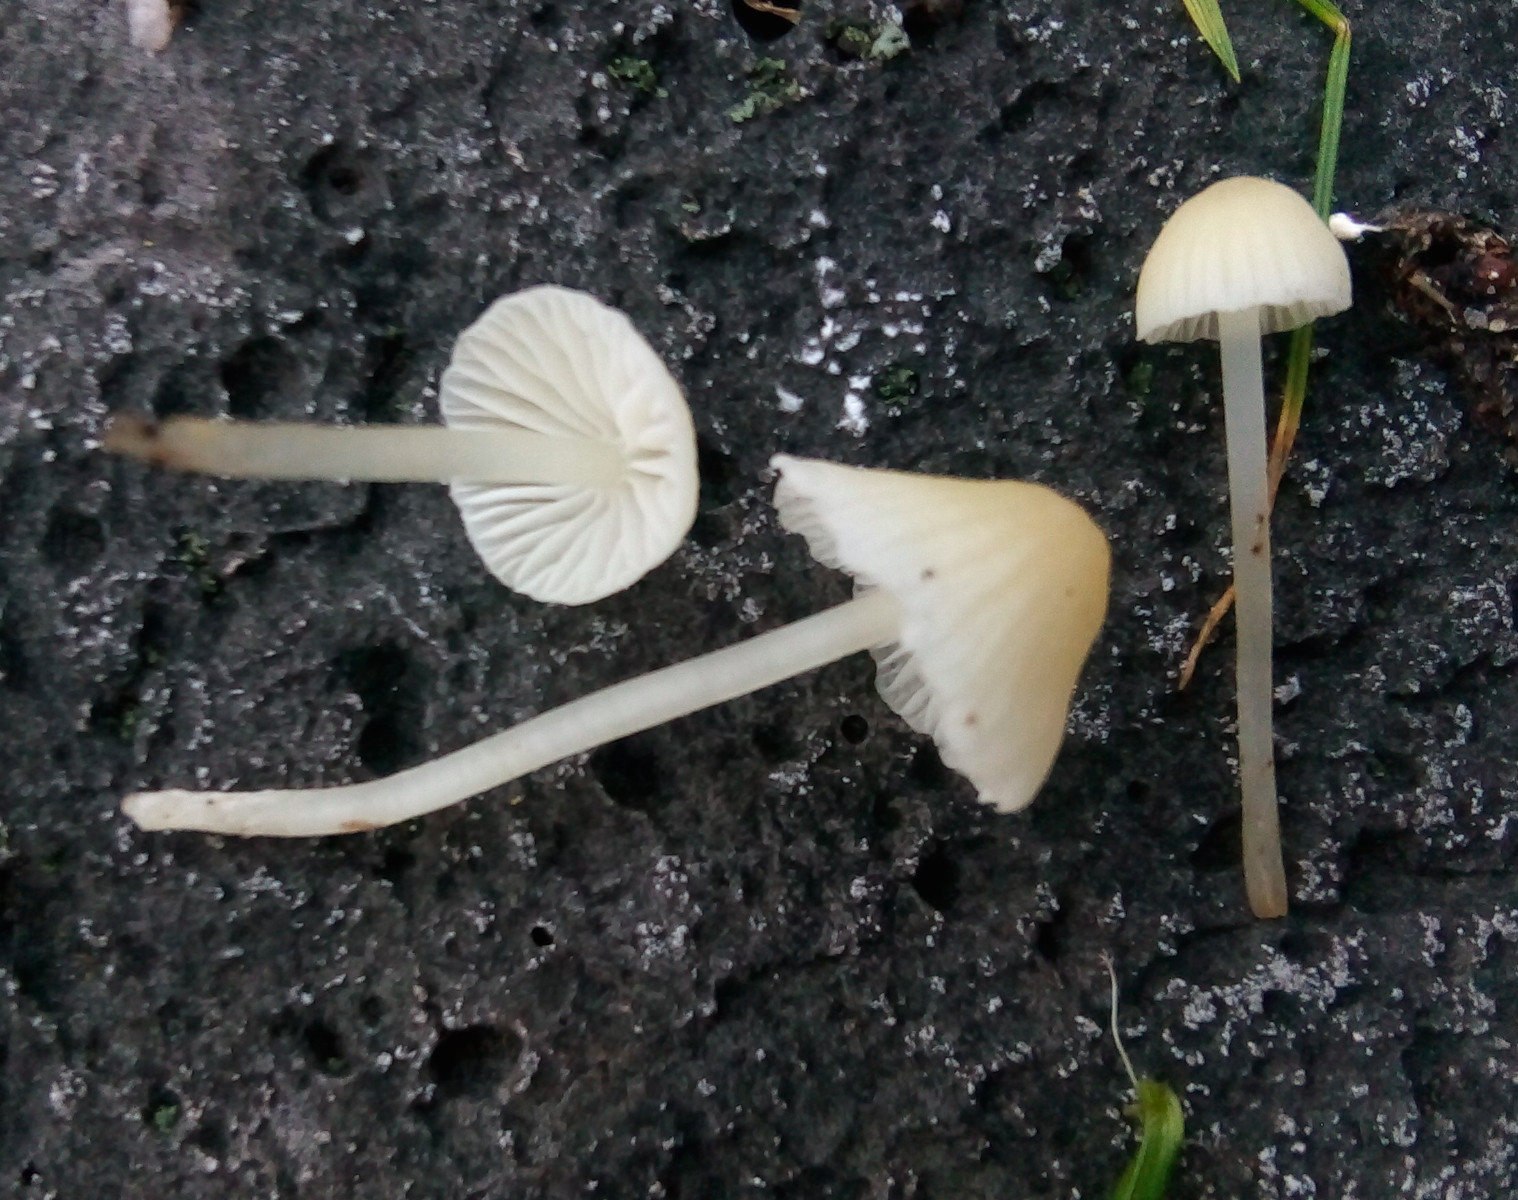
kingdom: Fungi
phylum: Basidiomycota
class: Agaricomycetes
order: Agaricales
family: Mycenaceae
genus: Atheniella
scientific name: Atheniella flavoalba
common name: gulhvid huesvamp
